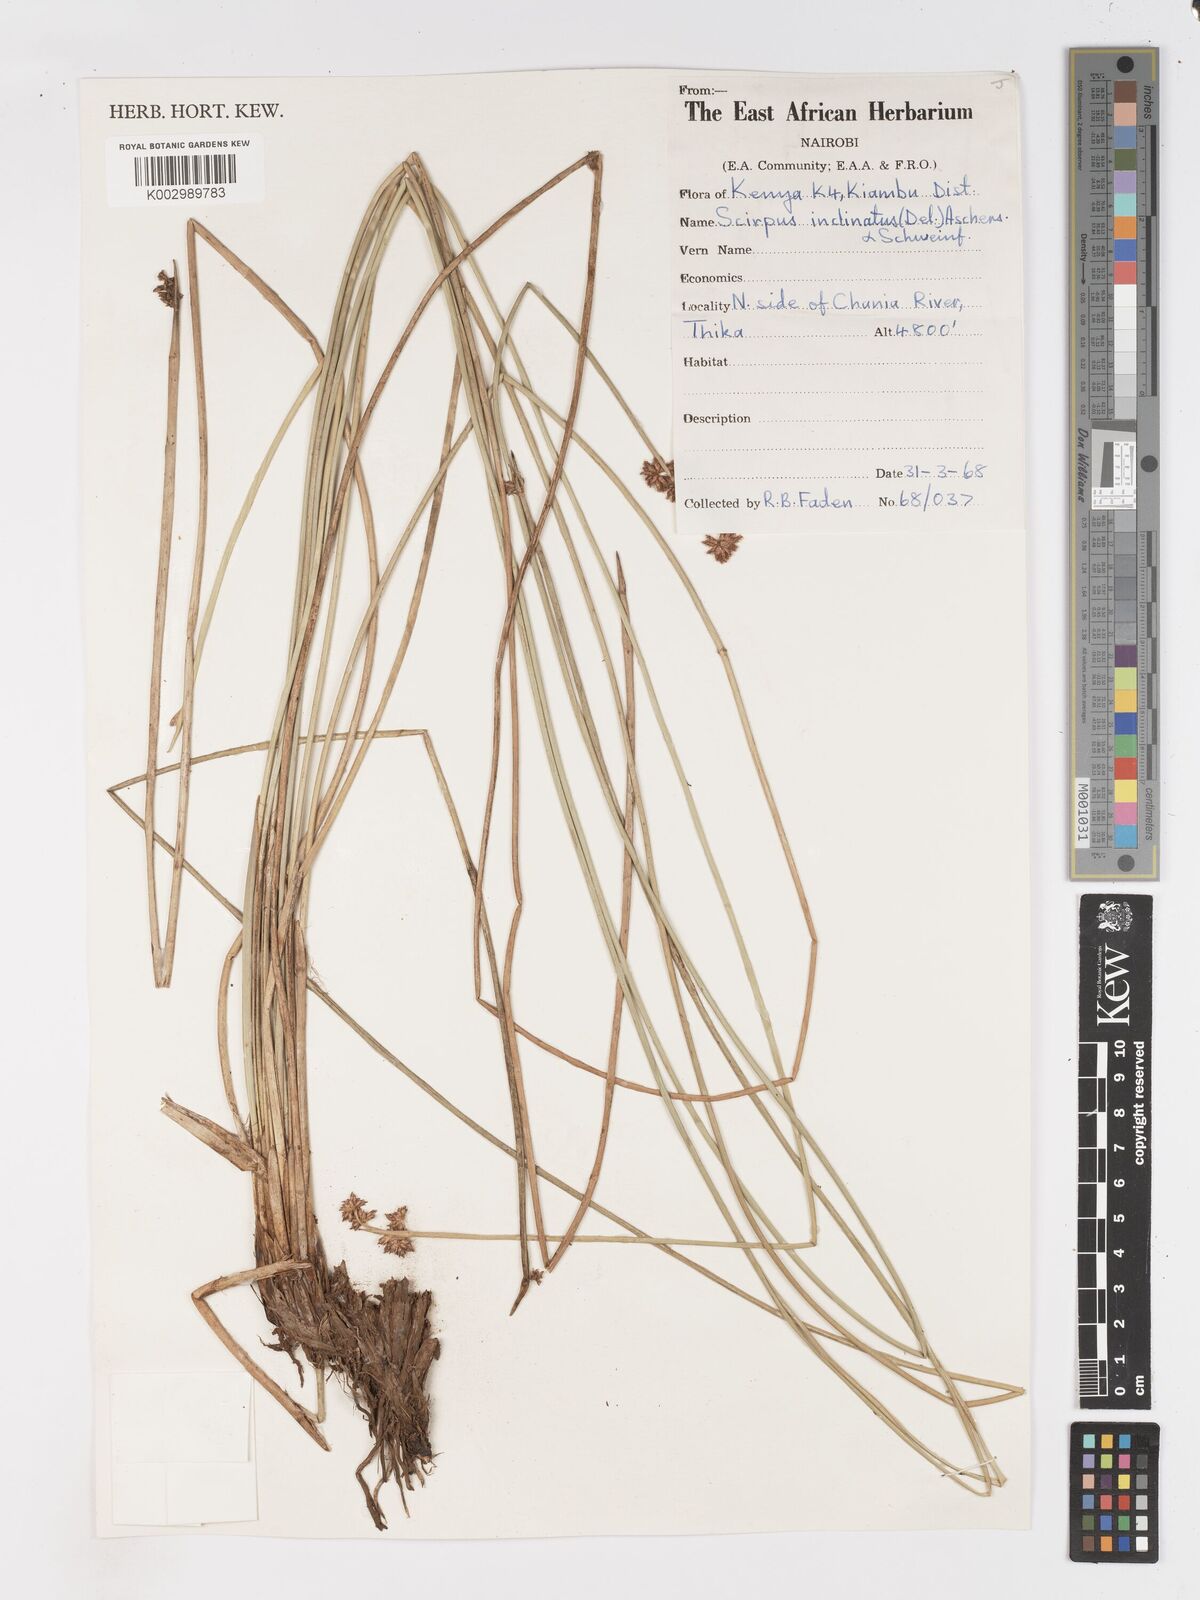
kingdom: Plantae
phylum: Tracheophyta
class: Liliopsida
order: Poales
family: Cyperaceae
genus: Schoenoplectiella
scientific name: Schoenoplectiella brachyceras
